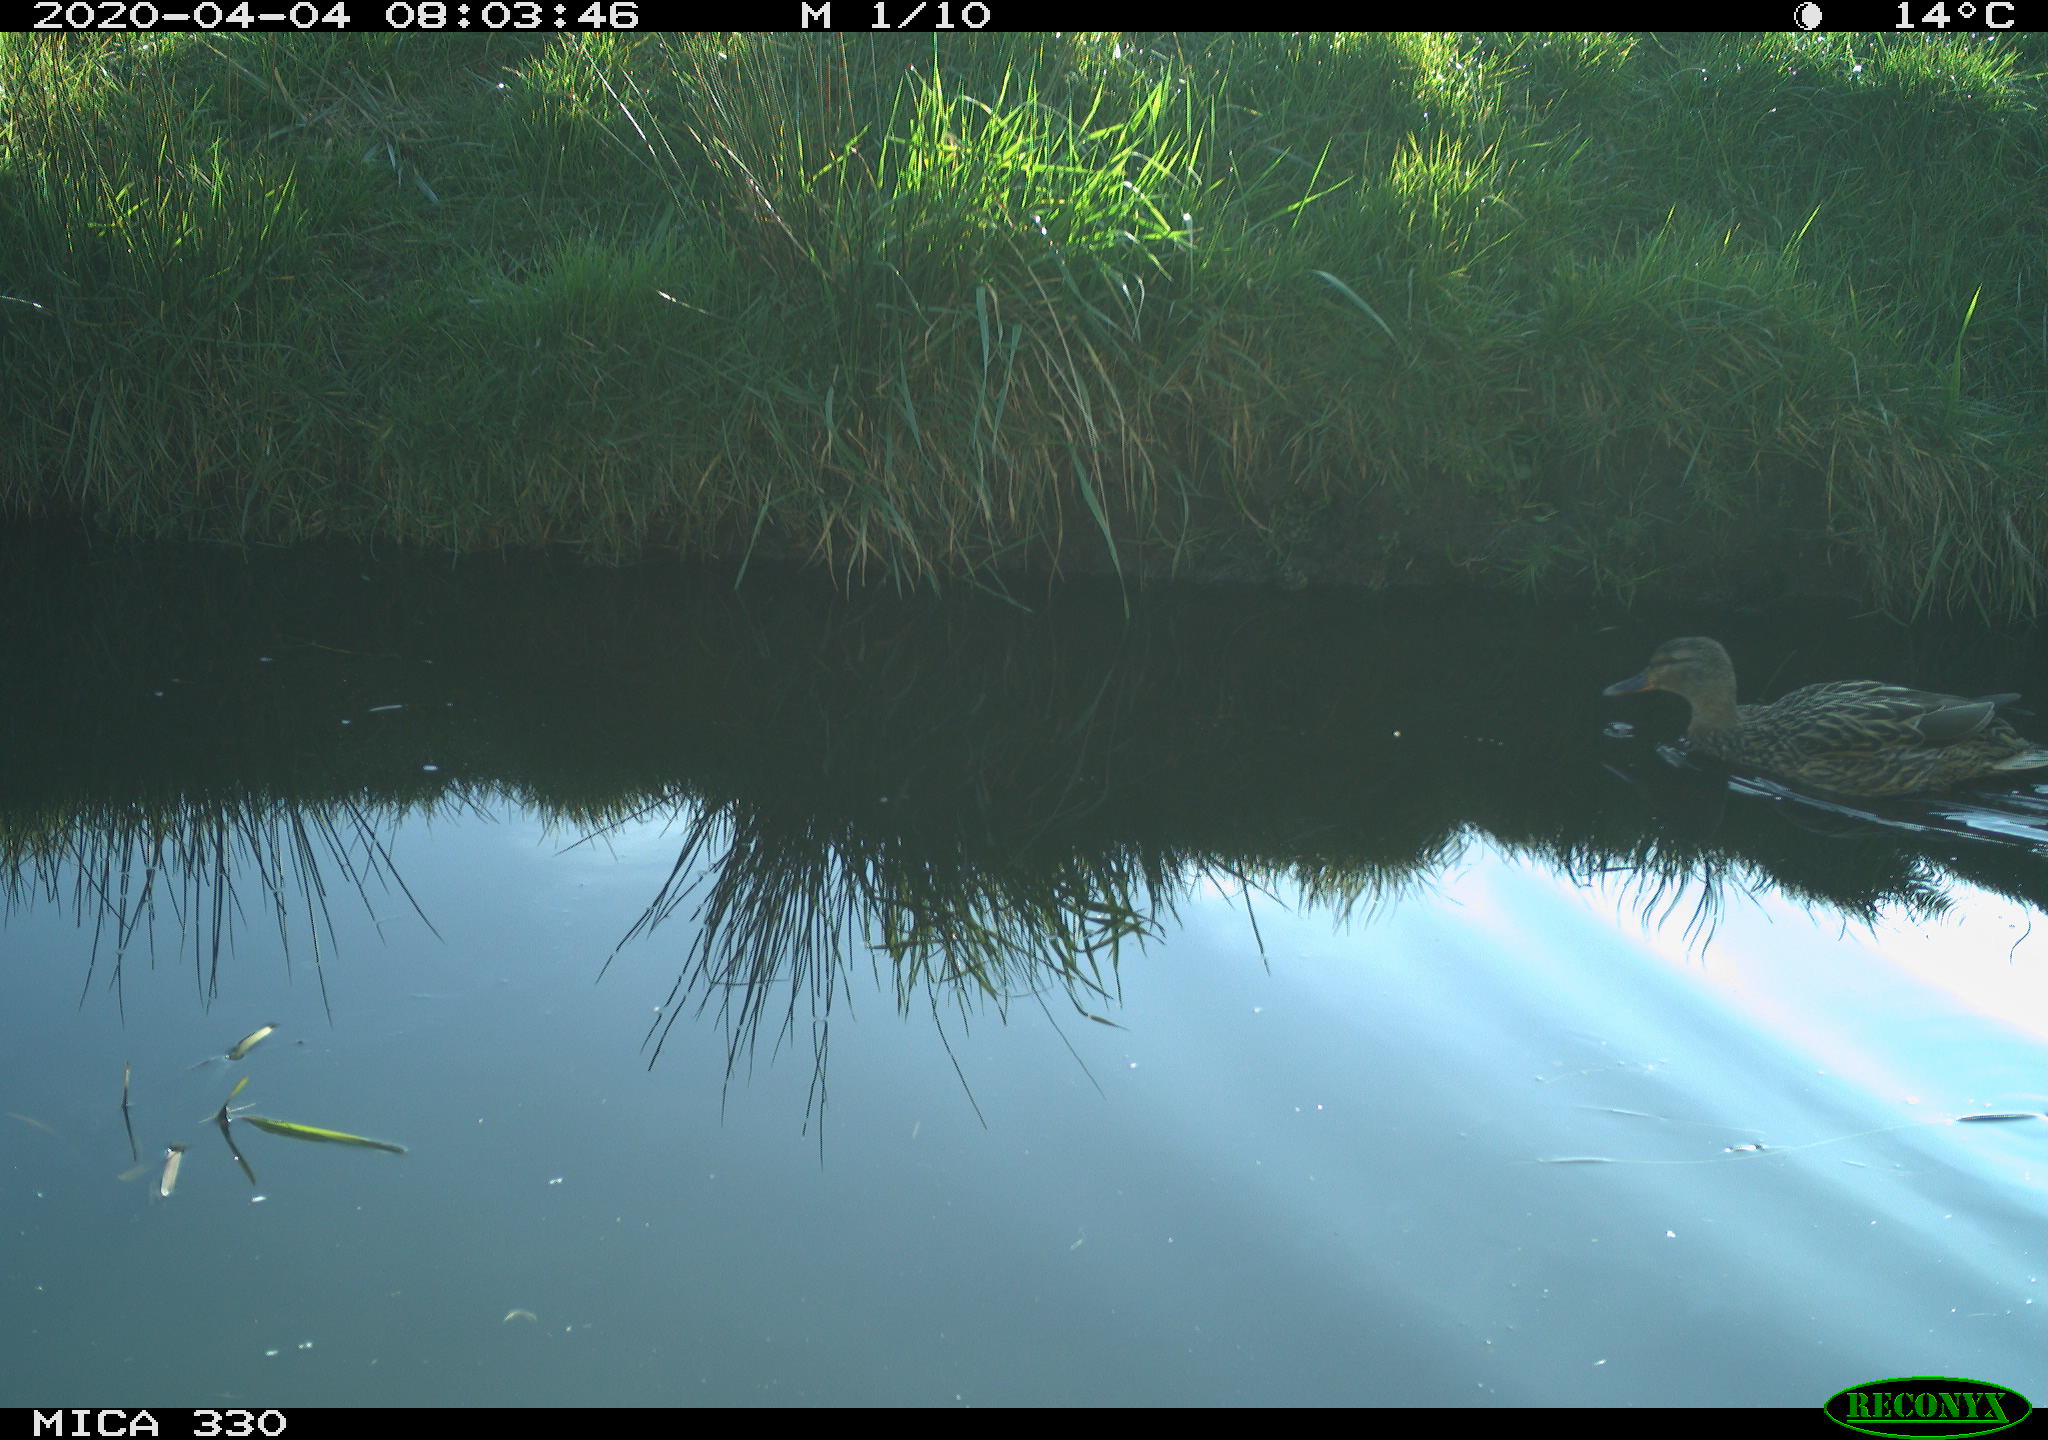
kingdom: Animalia
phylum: Chordata
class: Aves
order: Anseriformes
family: Anatidae
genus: Anas
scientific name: Anas platyrhynchos
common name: Mallard
